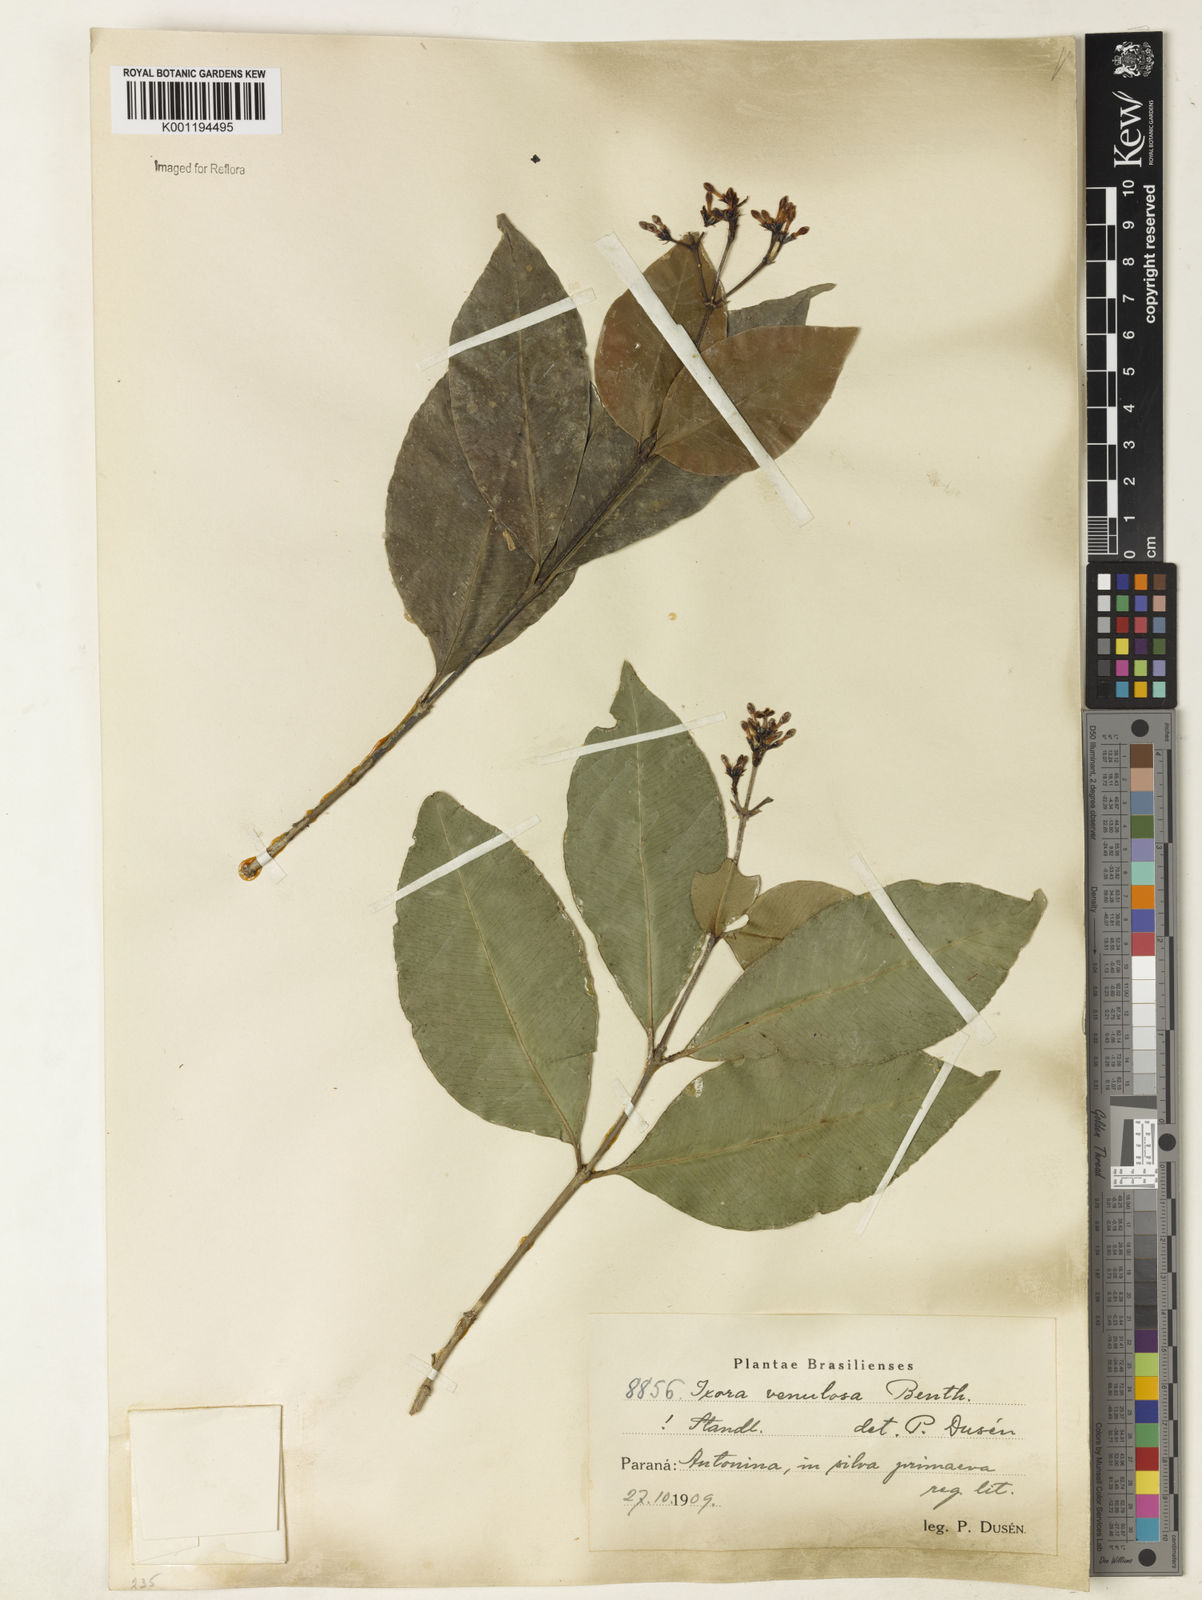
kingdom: Plantae
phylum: Tracheophyta
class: Magnoliopsida
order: Gentianales
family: Rubiaceae
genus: Ixora
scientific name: Ixora venulosa
